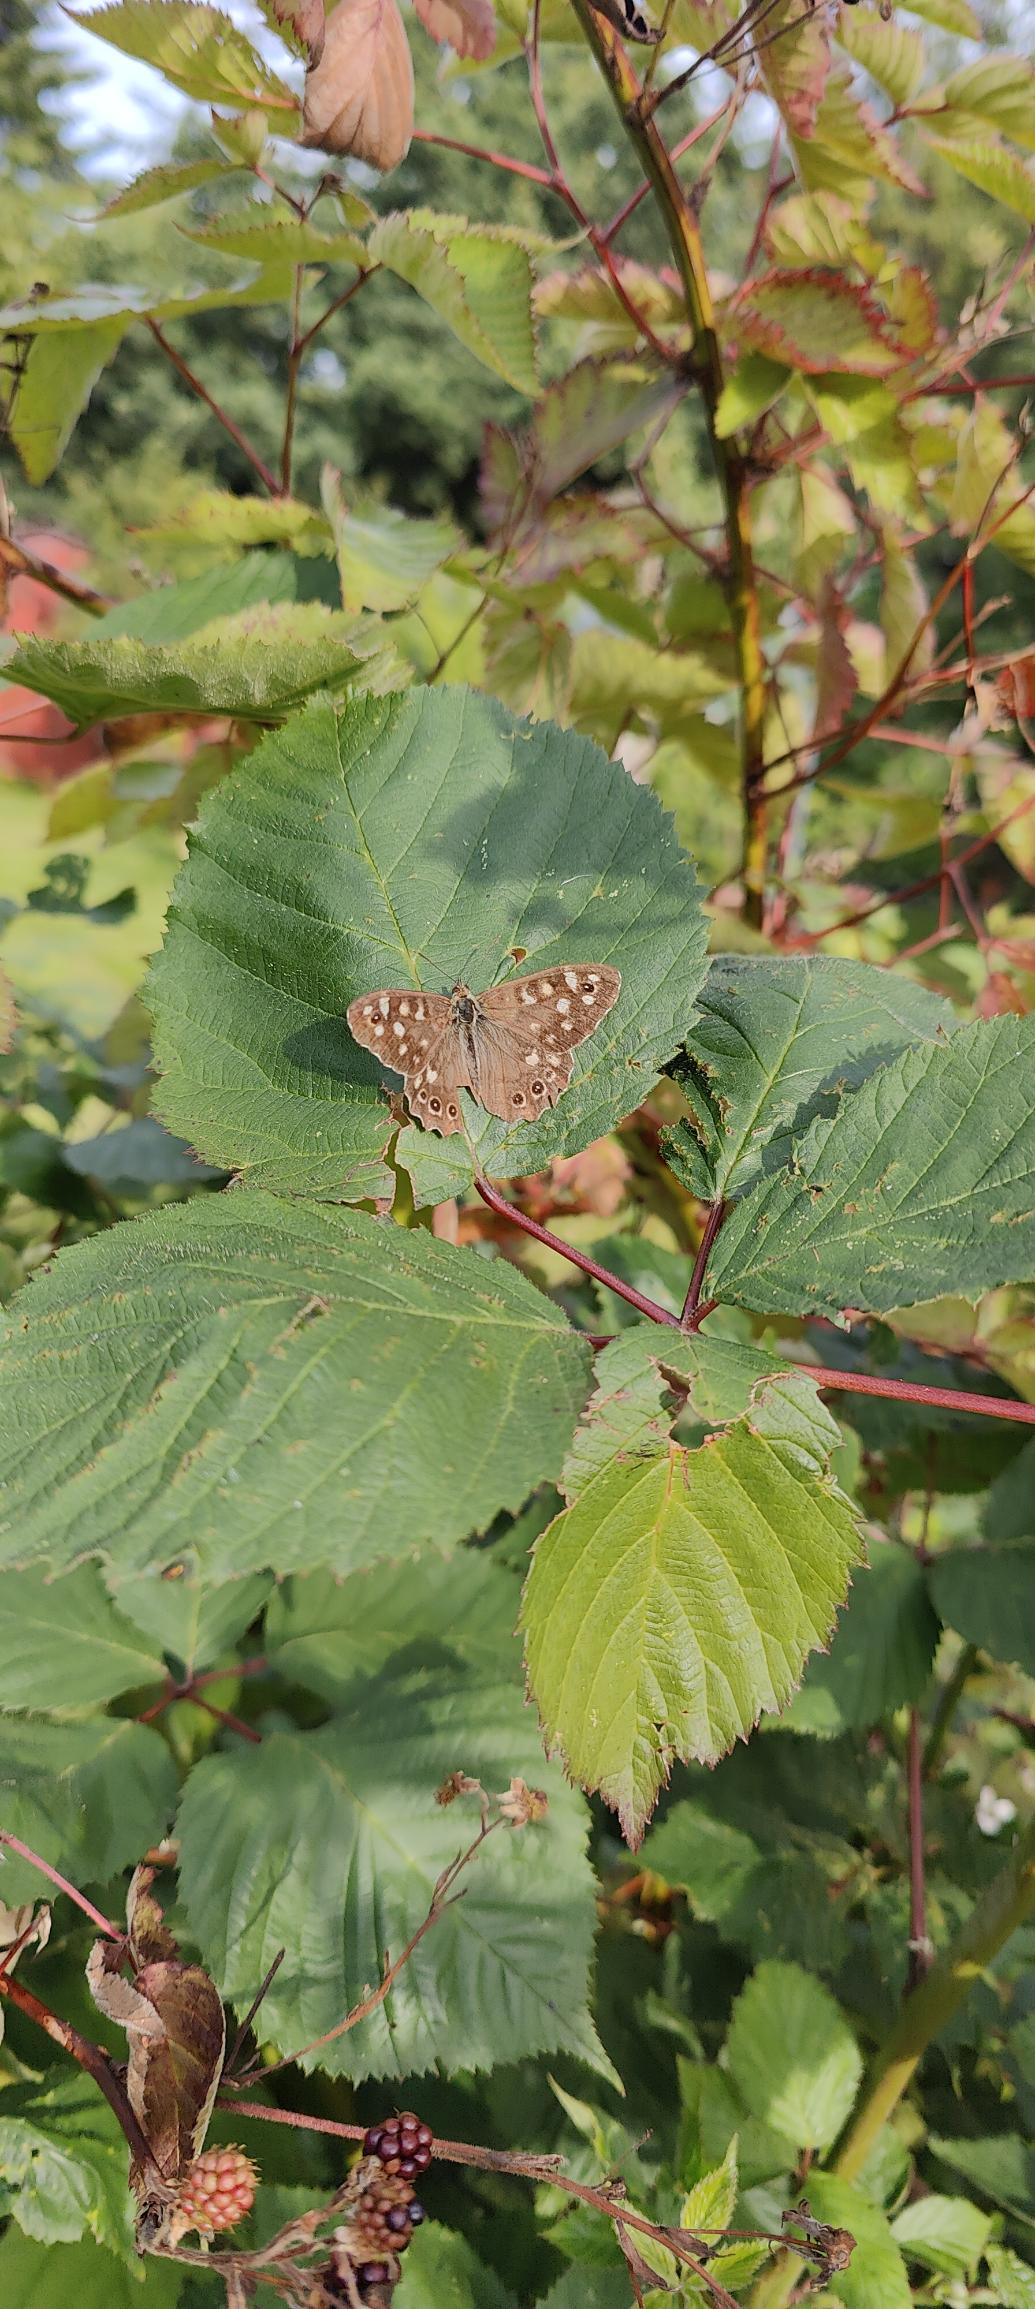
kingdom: Animalia
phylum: Arthropoda
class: Insecta
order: Lepidoptera
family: Nymphalidae
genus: Pararge
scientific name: Pararge aegeria
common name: Skovrandøje
